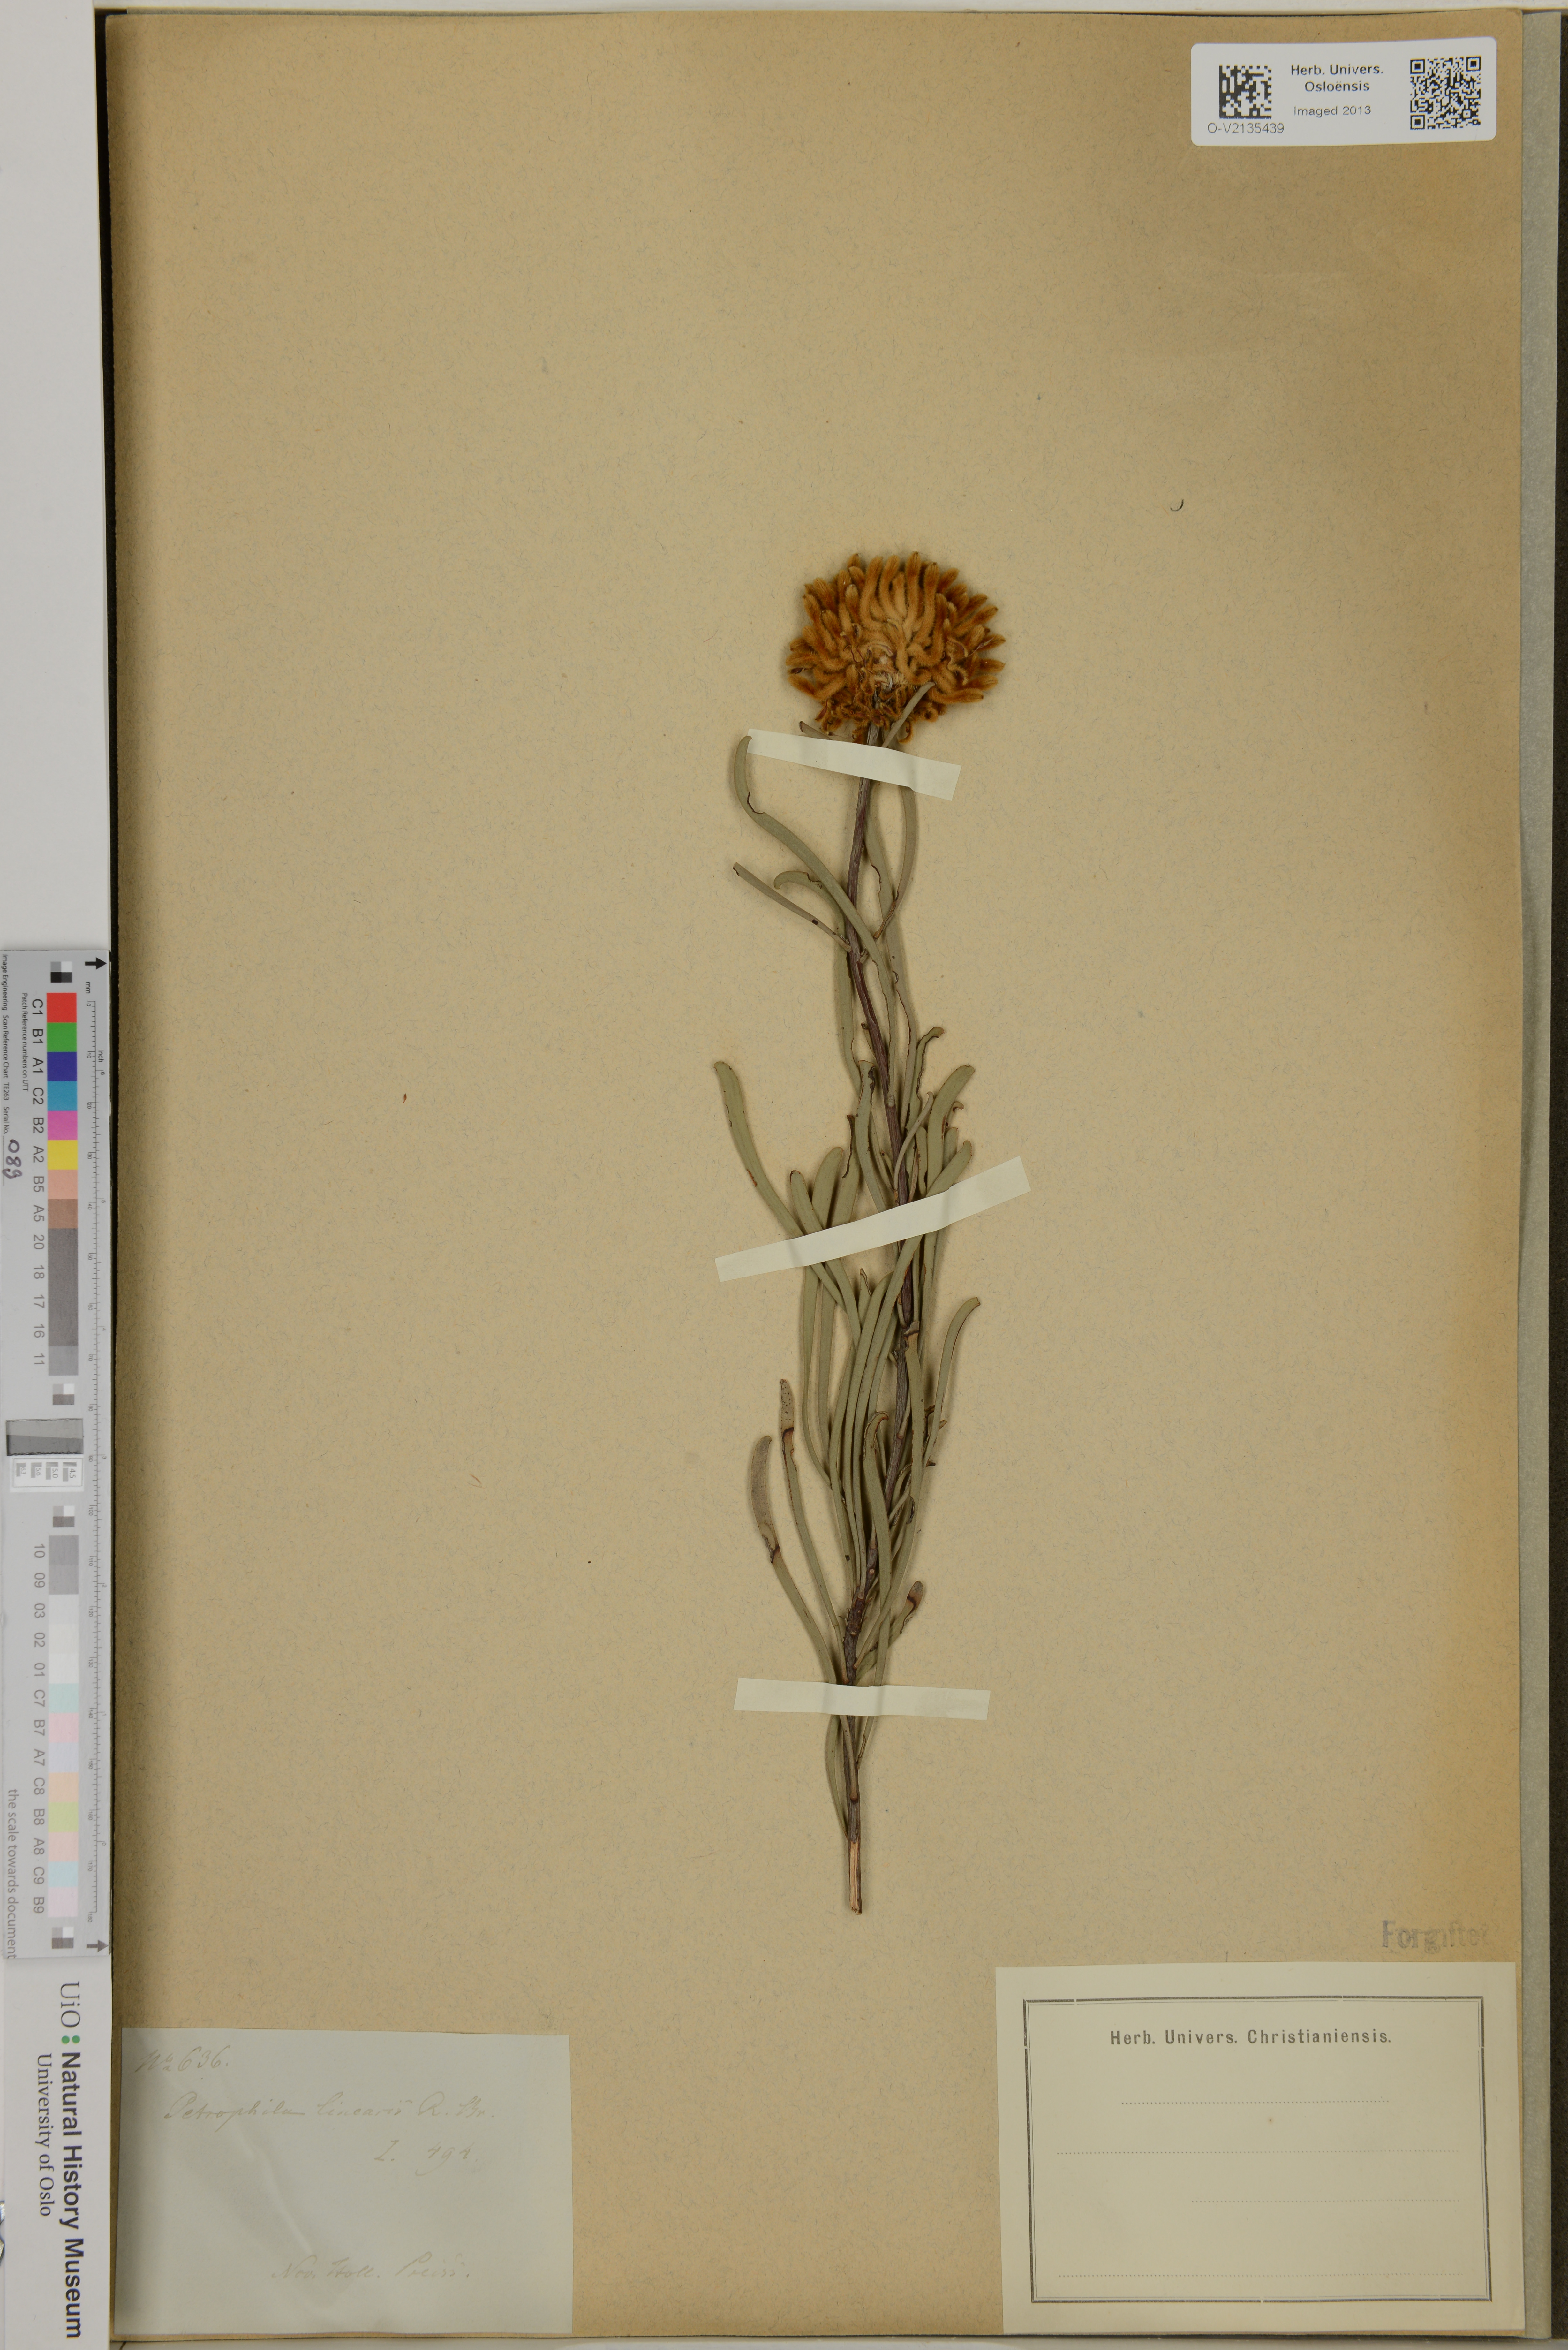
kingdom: Plantae
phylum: Tracheophyta
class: Magnoliopsida
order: Proteales
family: Proteaceae
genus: Petrophile
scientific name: Petrophile linearis
